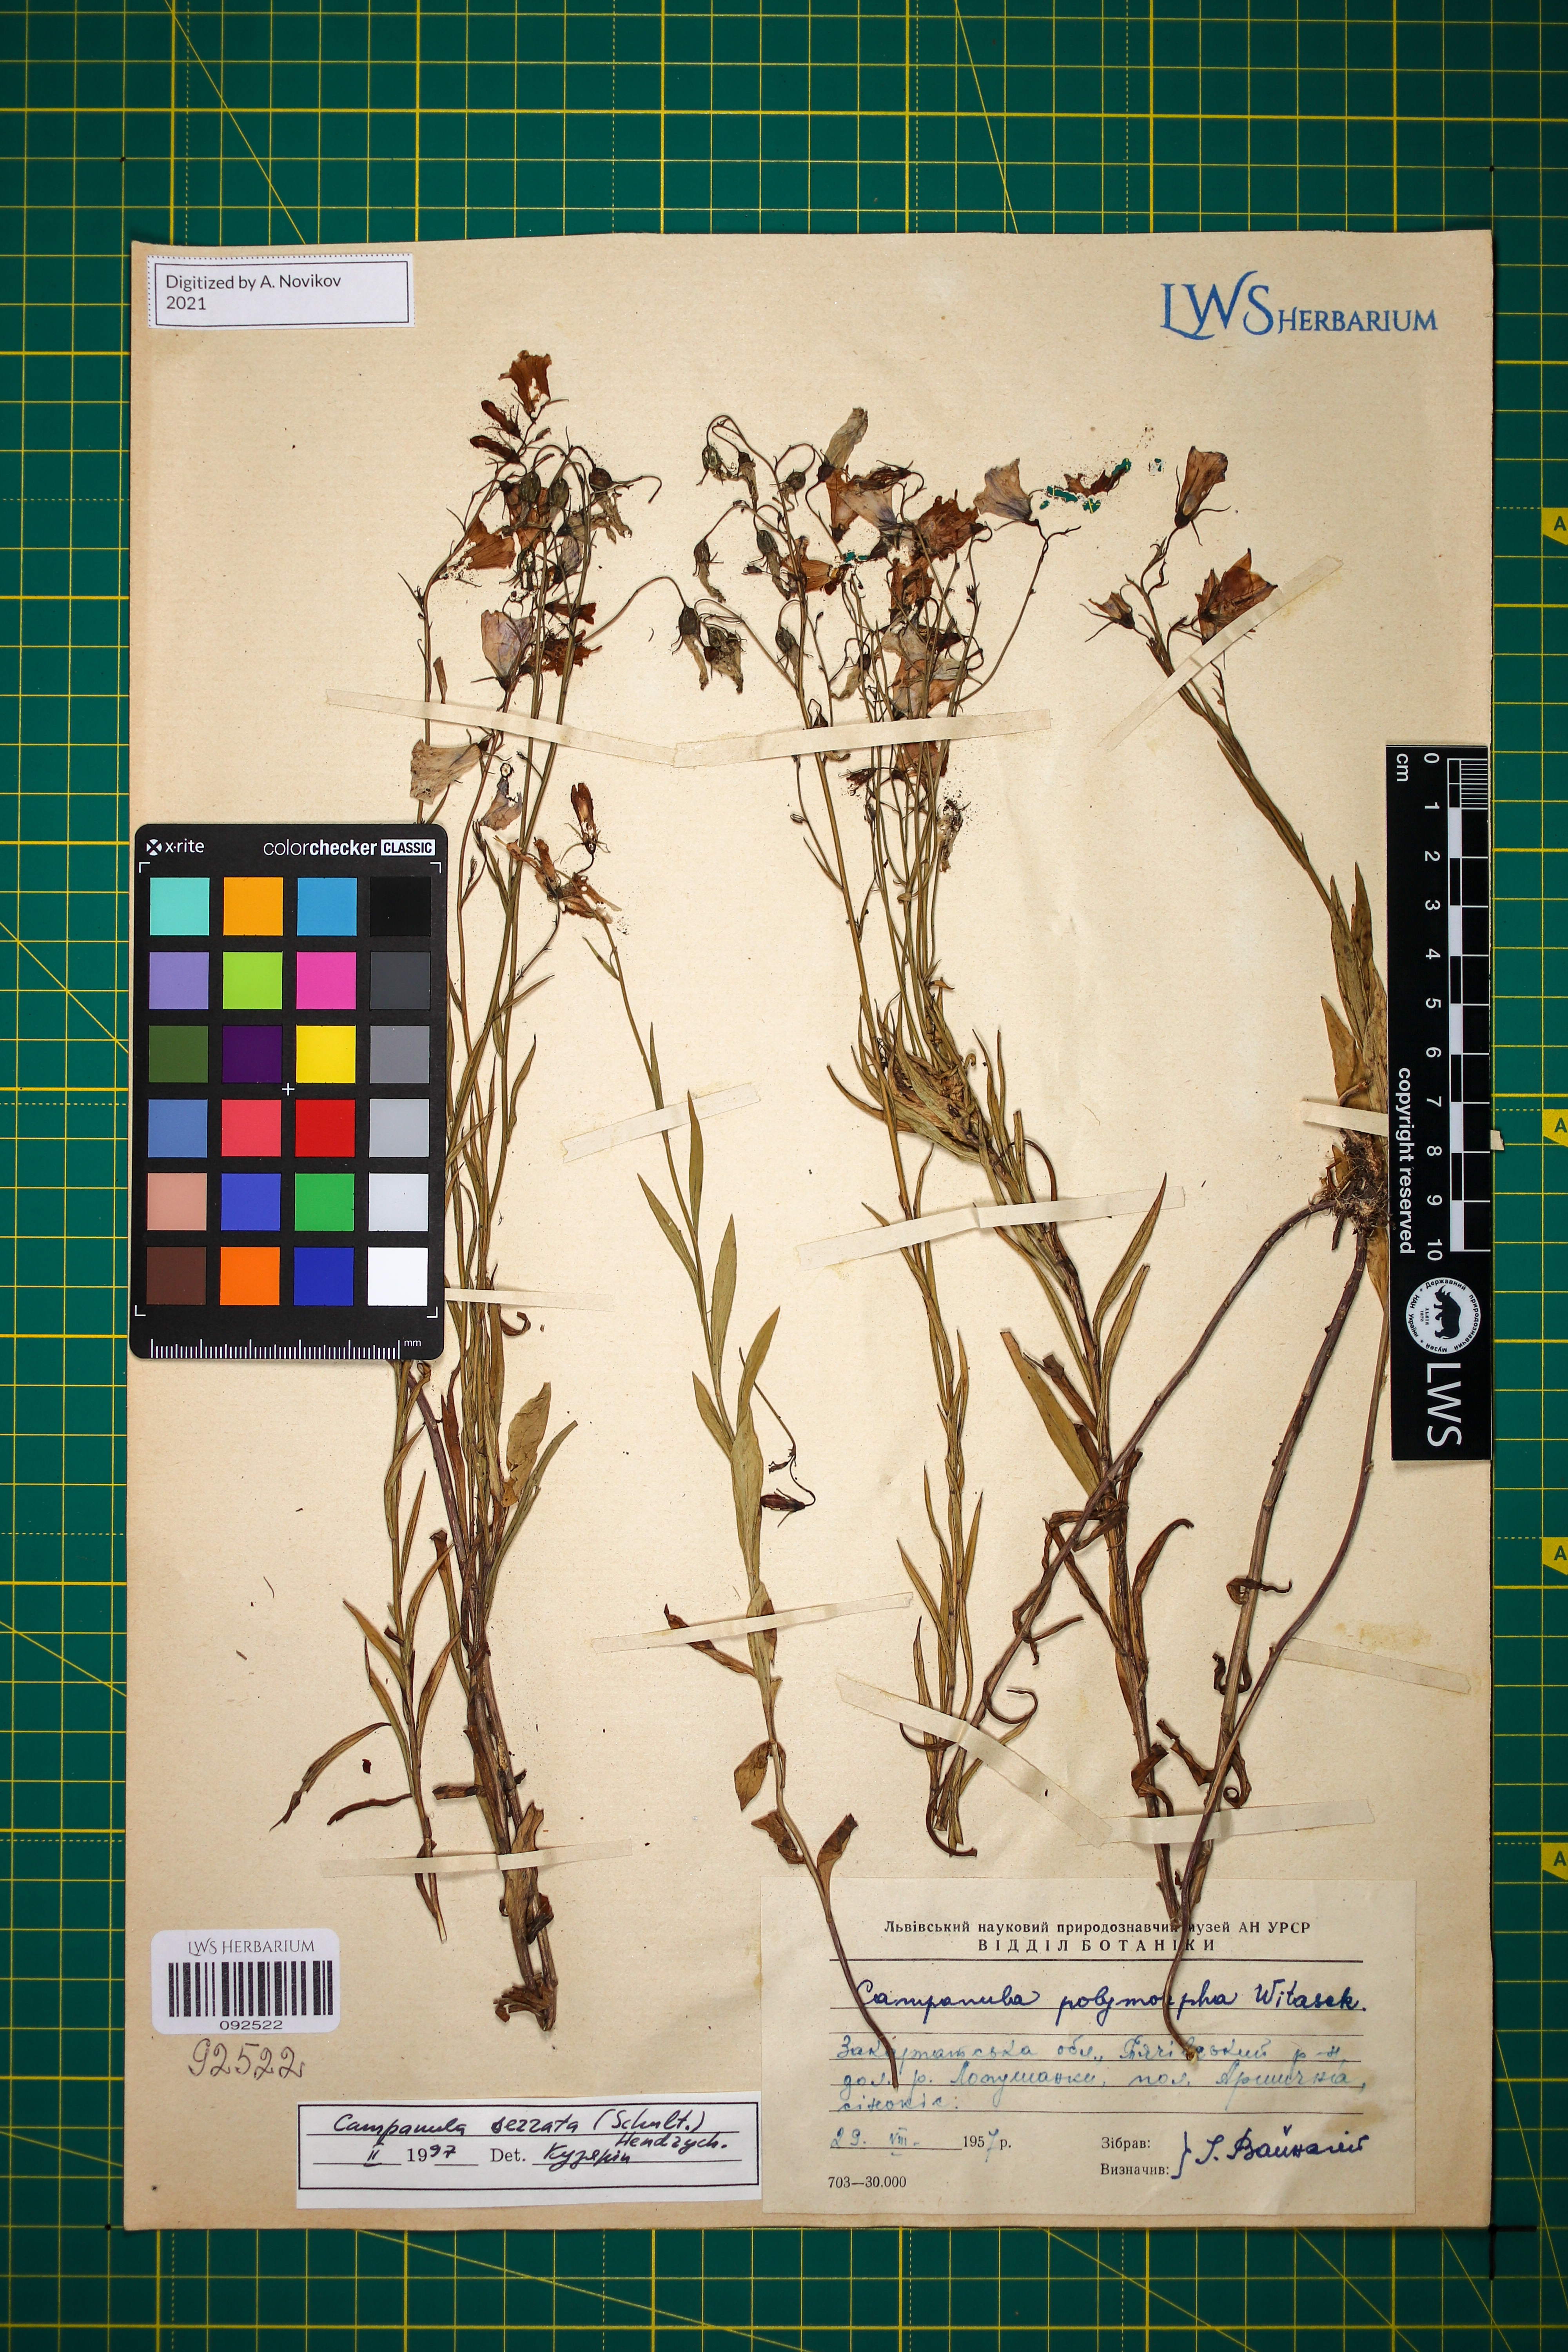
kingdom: Plantae
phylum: Tracheophyta
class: Magnoliopsida
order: Asterales
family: Campanulaceae
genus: Campanula
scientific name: Campanula serrata
